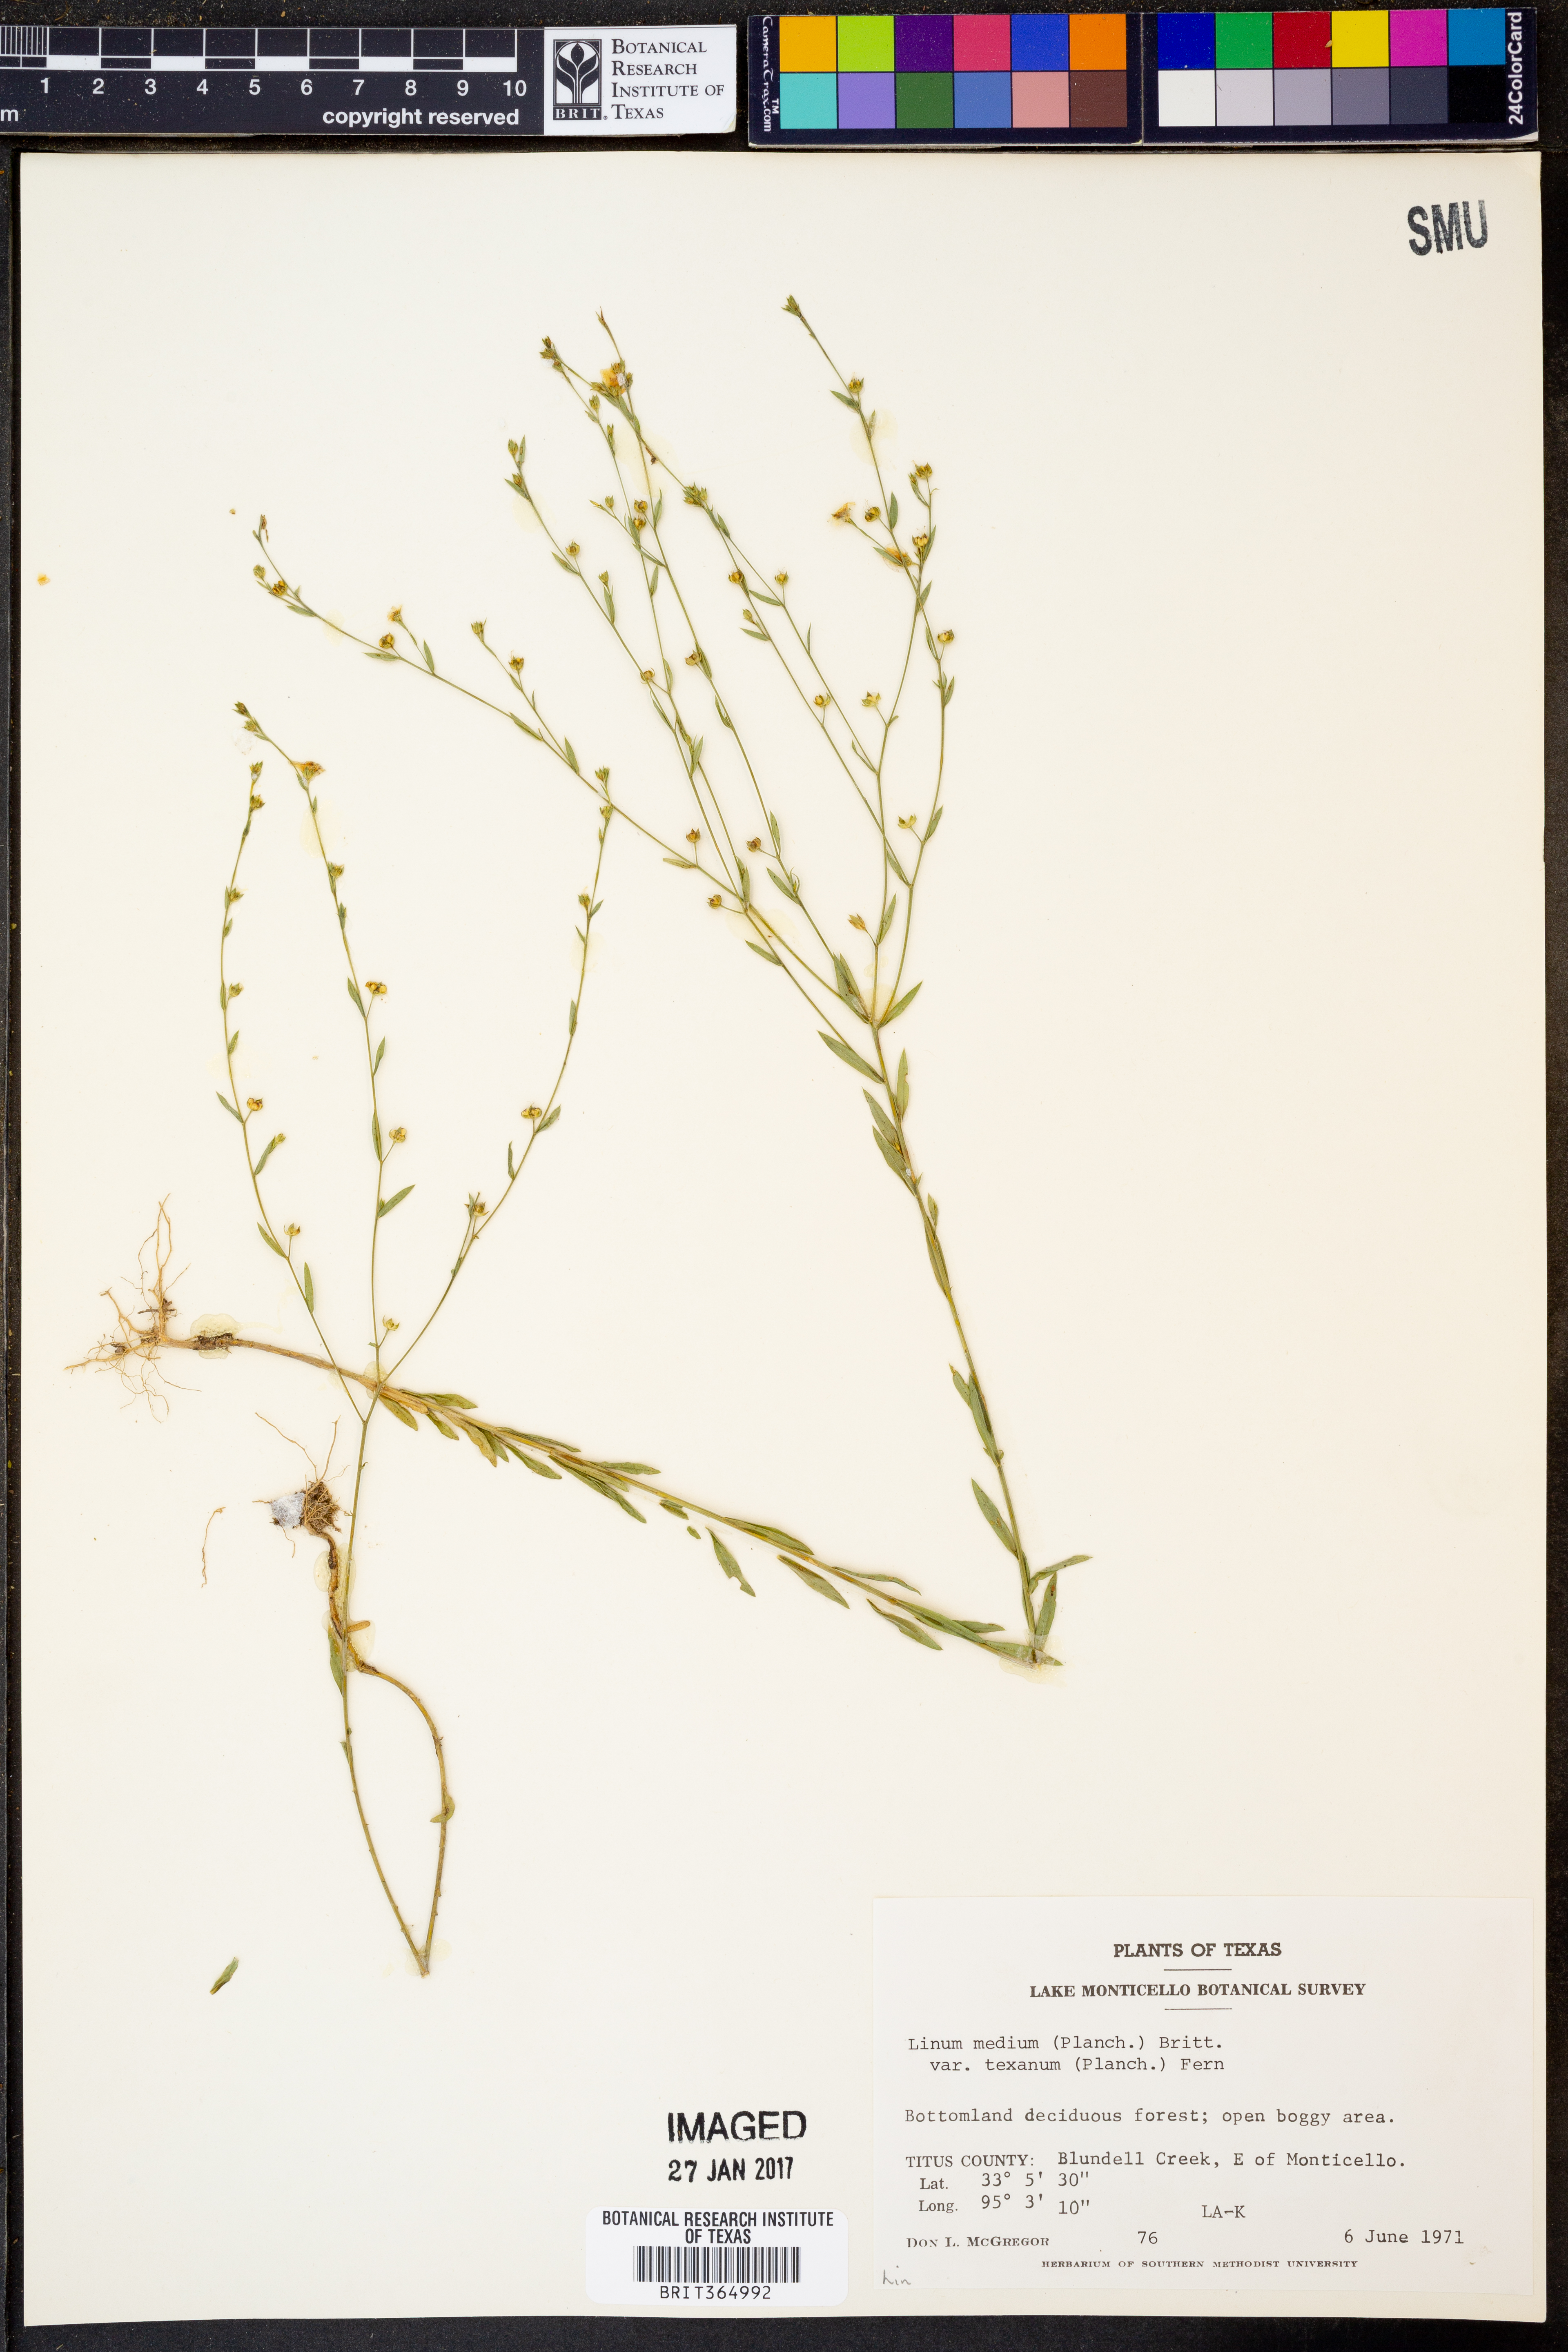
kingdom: Plantae
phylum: Tracheophyta
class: Magnoliopsida
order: Malpighiales
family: Linaceae
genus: Linum
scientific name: Linum medium
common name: Stiff yellow flax
